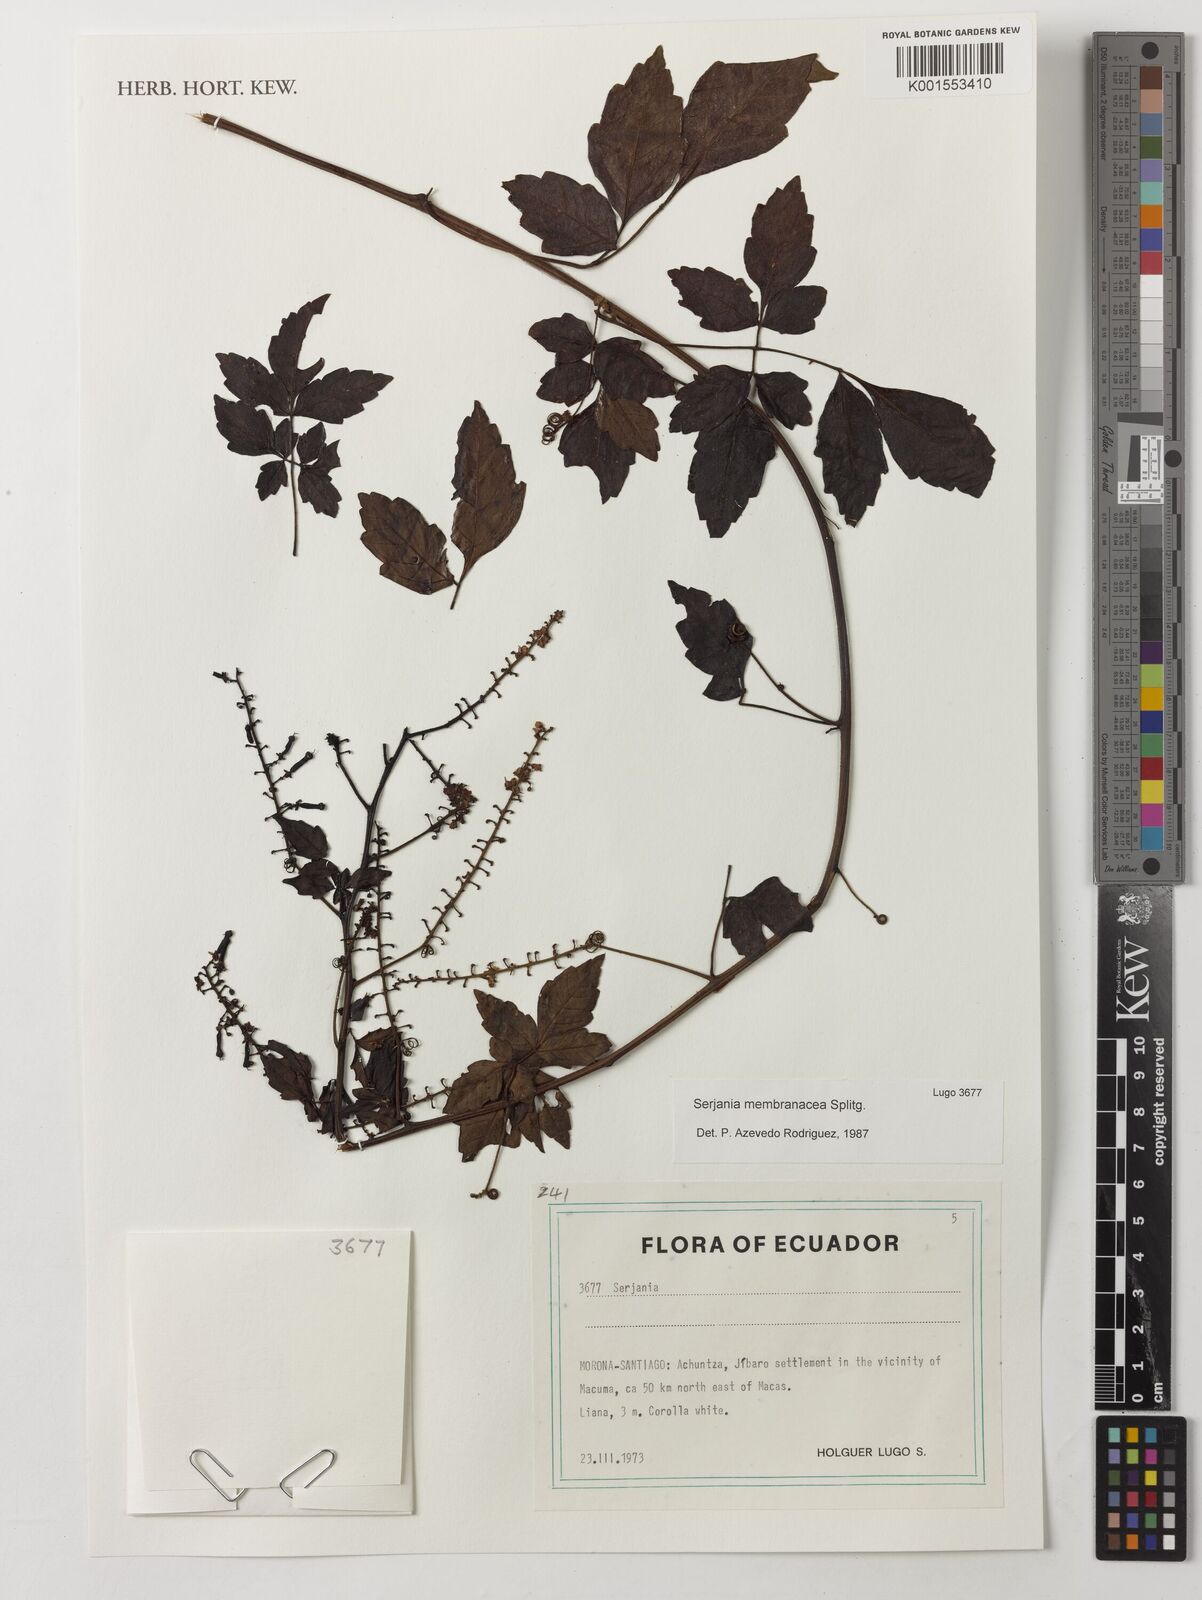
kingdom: Plantae
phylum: Tracheophyta
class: Magnoliopsida
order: Sapindales
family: Sapindaceae
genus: Serjania
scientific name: Serjania membranacea
